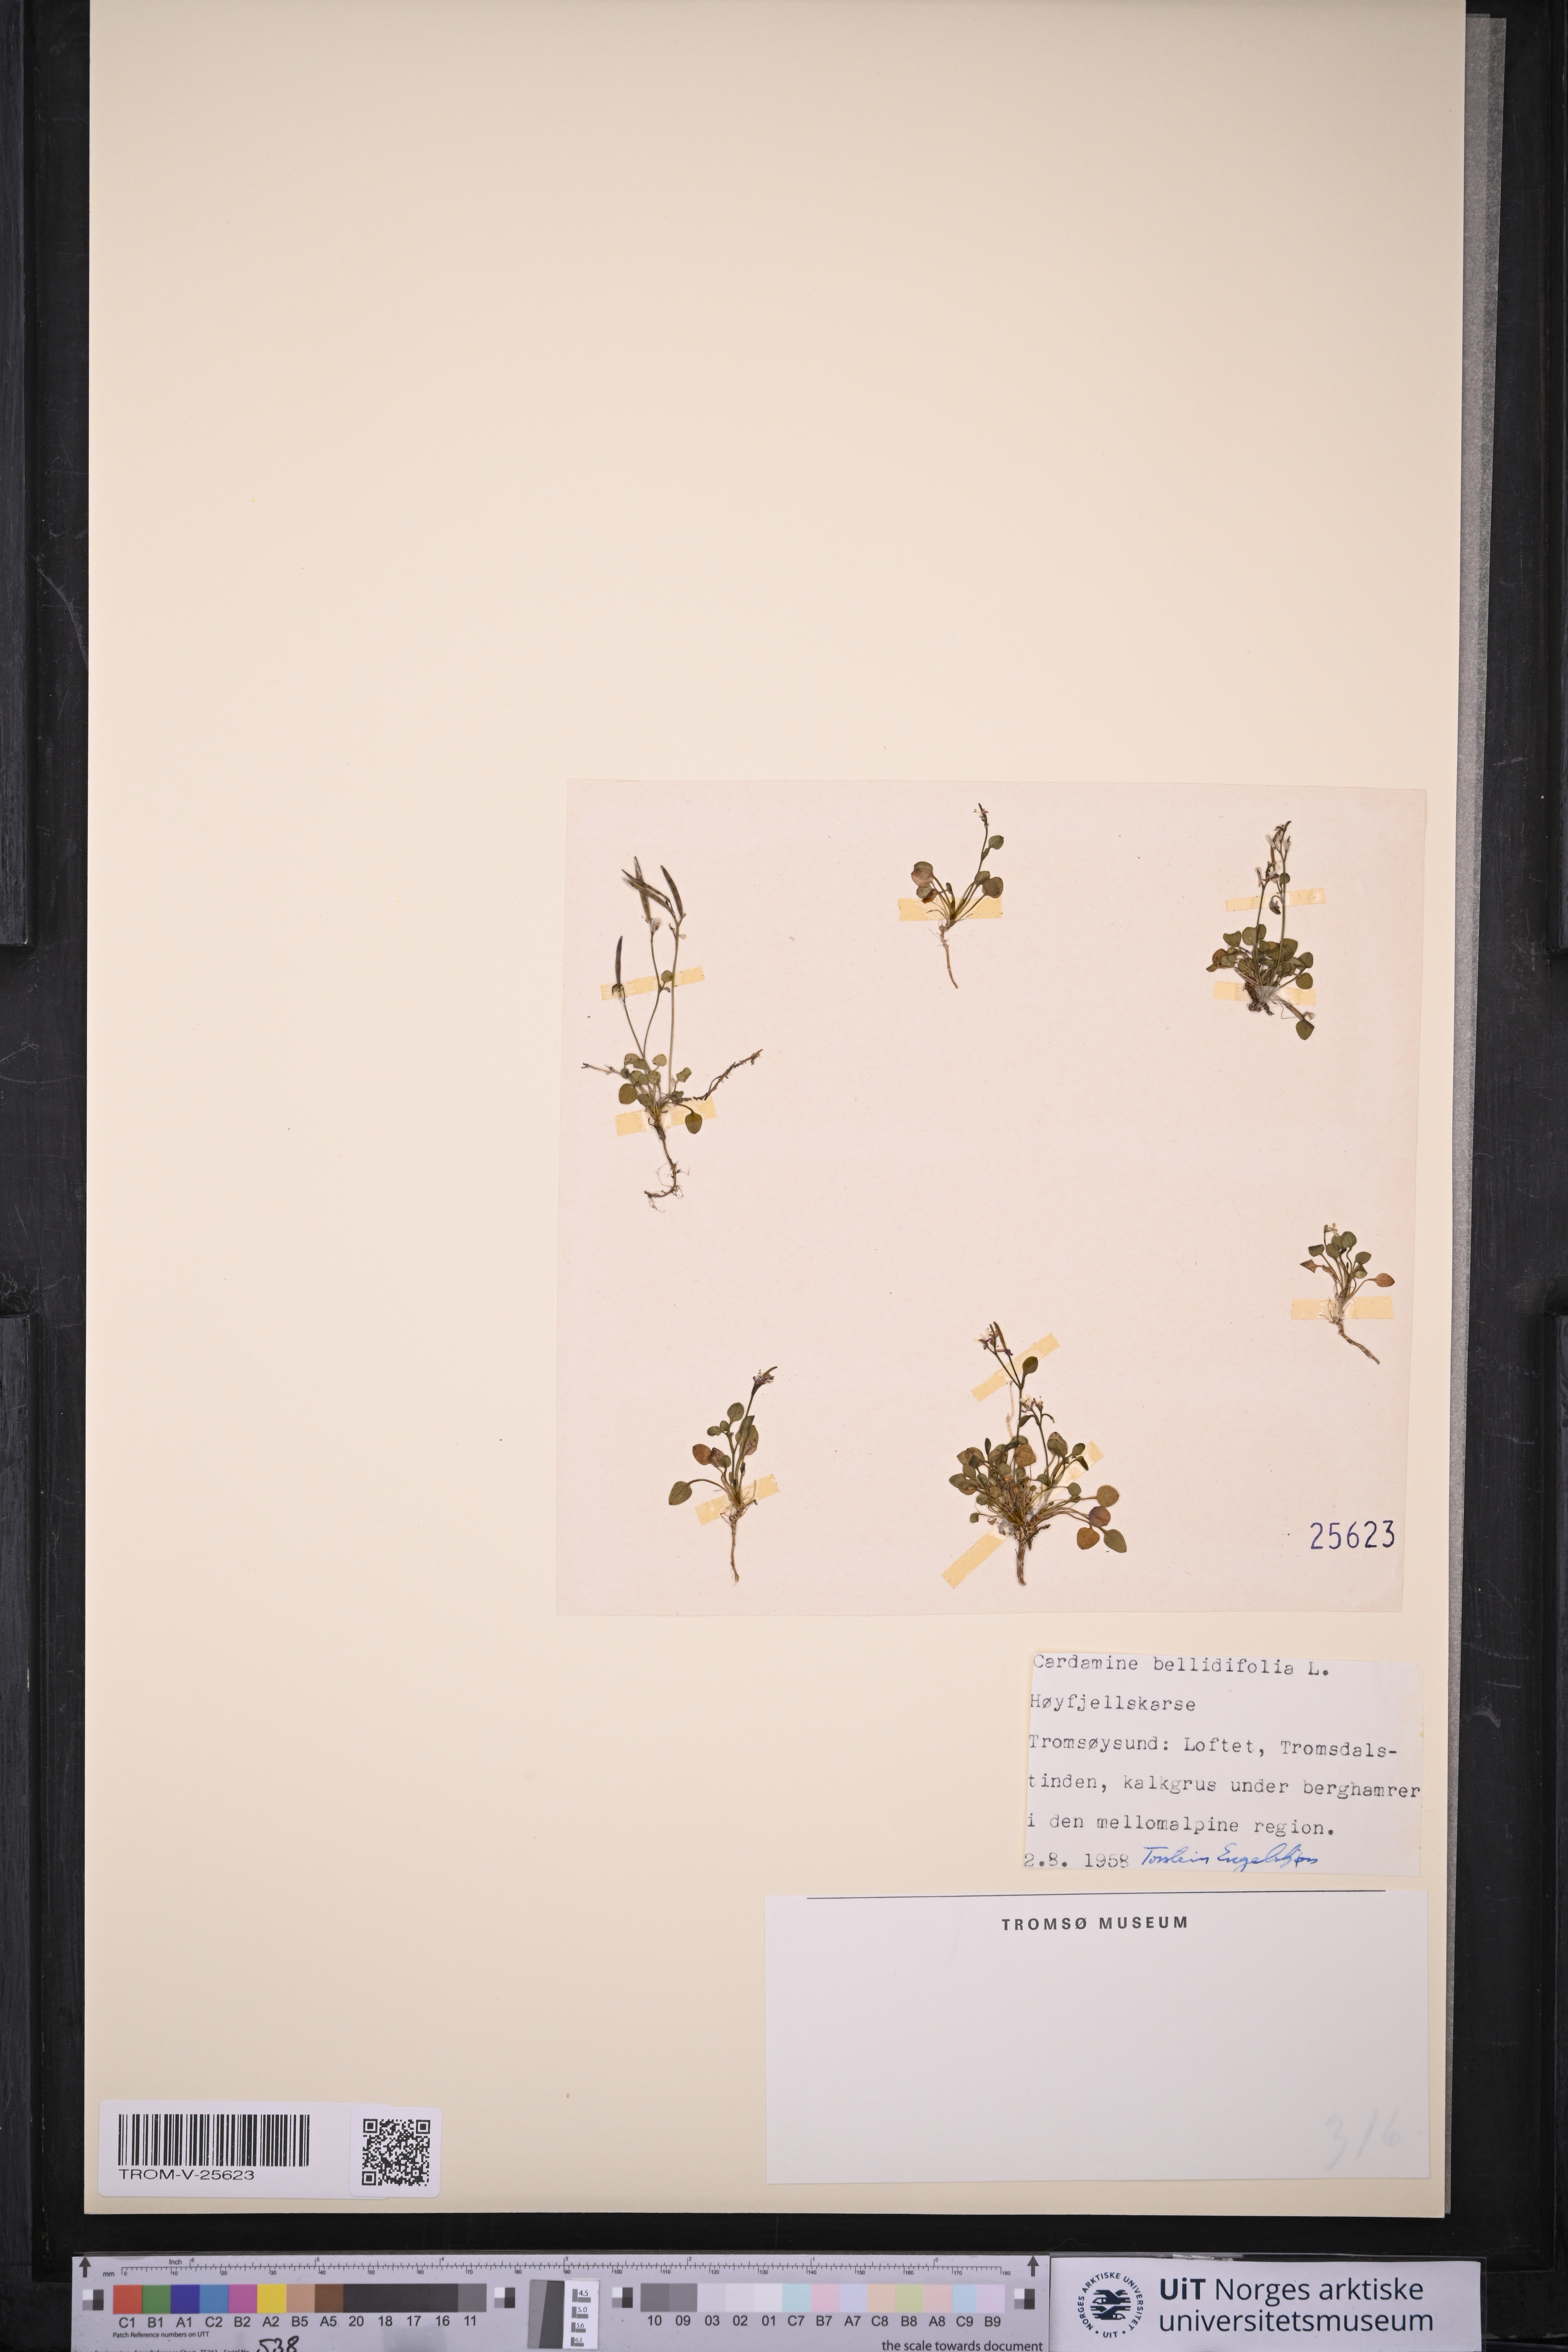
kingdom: Plantae
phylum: Tracheophyta
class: Magnoliopsida
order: Brassicales
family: Brassicaceae
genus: Cardamine
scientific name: Cardamine bellidifolia
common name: Alpine bittercress
